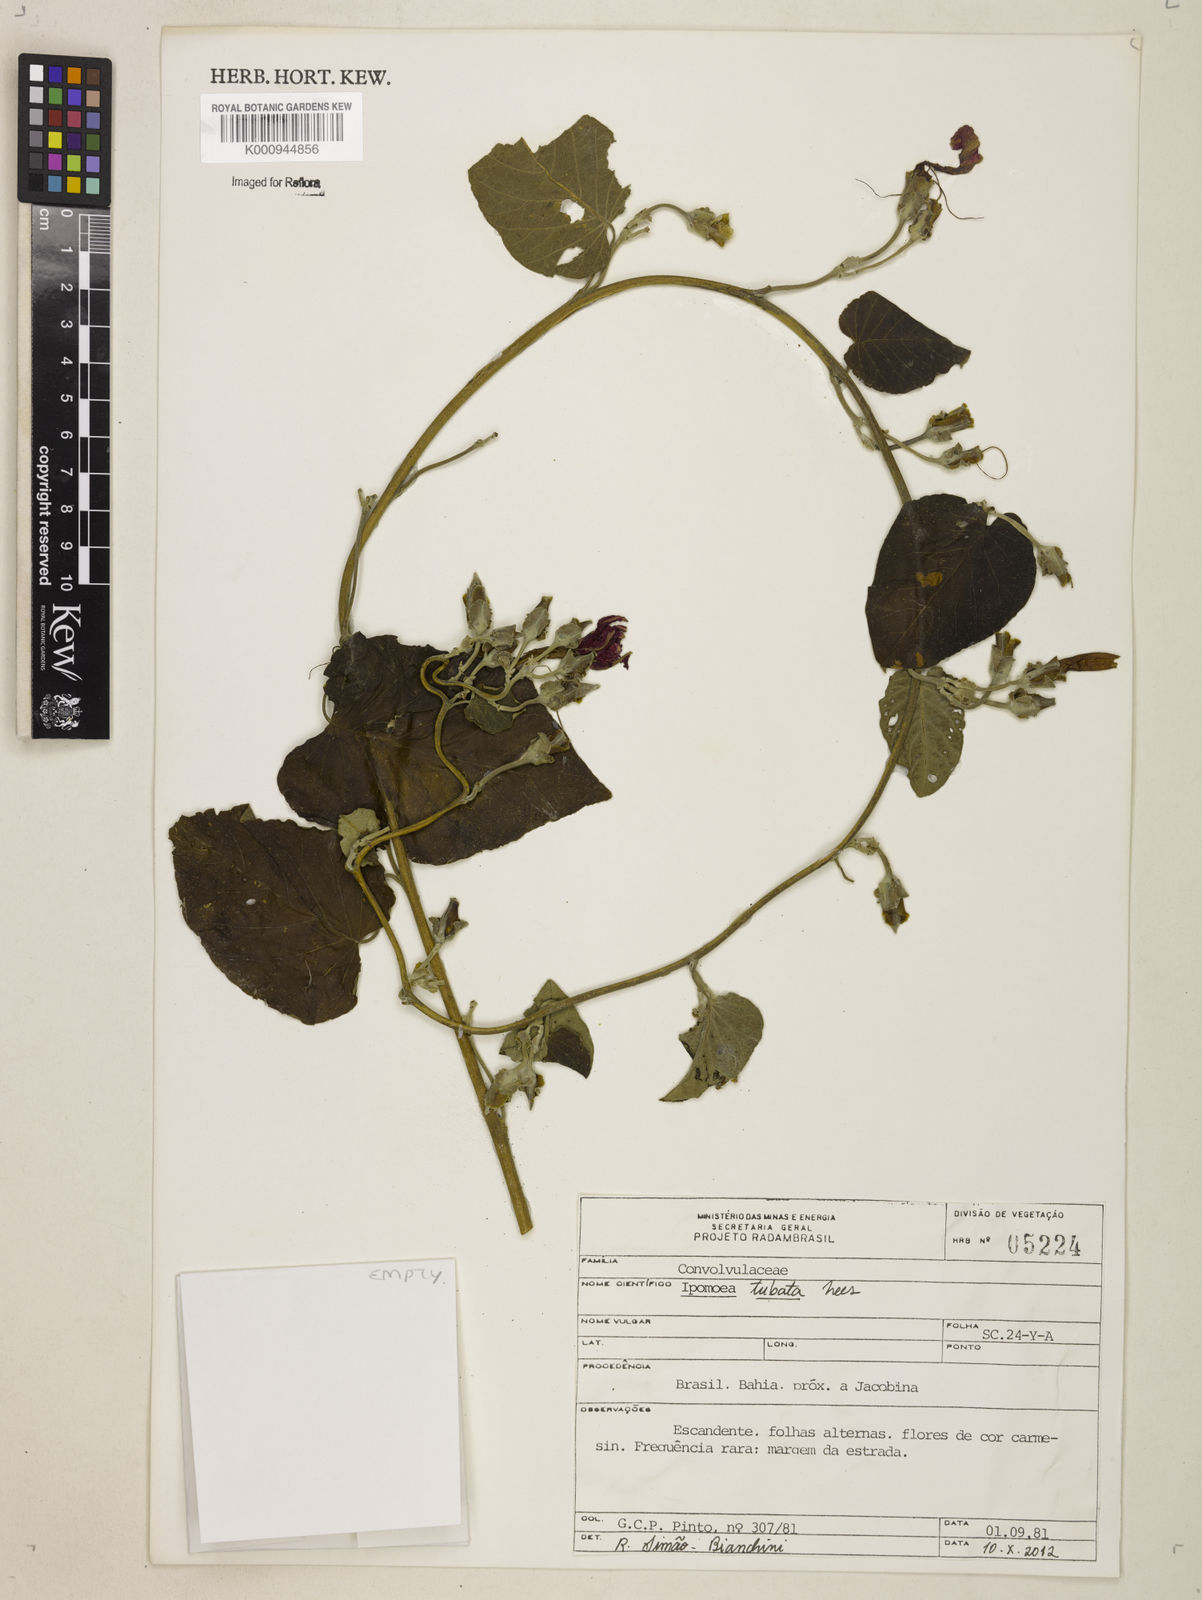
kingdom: Plantae
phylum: Tracheophyta
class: Magnoliopsida
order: Solanales
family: Convolvulaceae
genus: Ipomoea
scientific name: Ipomoea sidifolia
